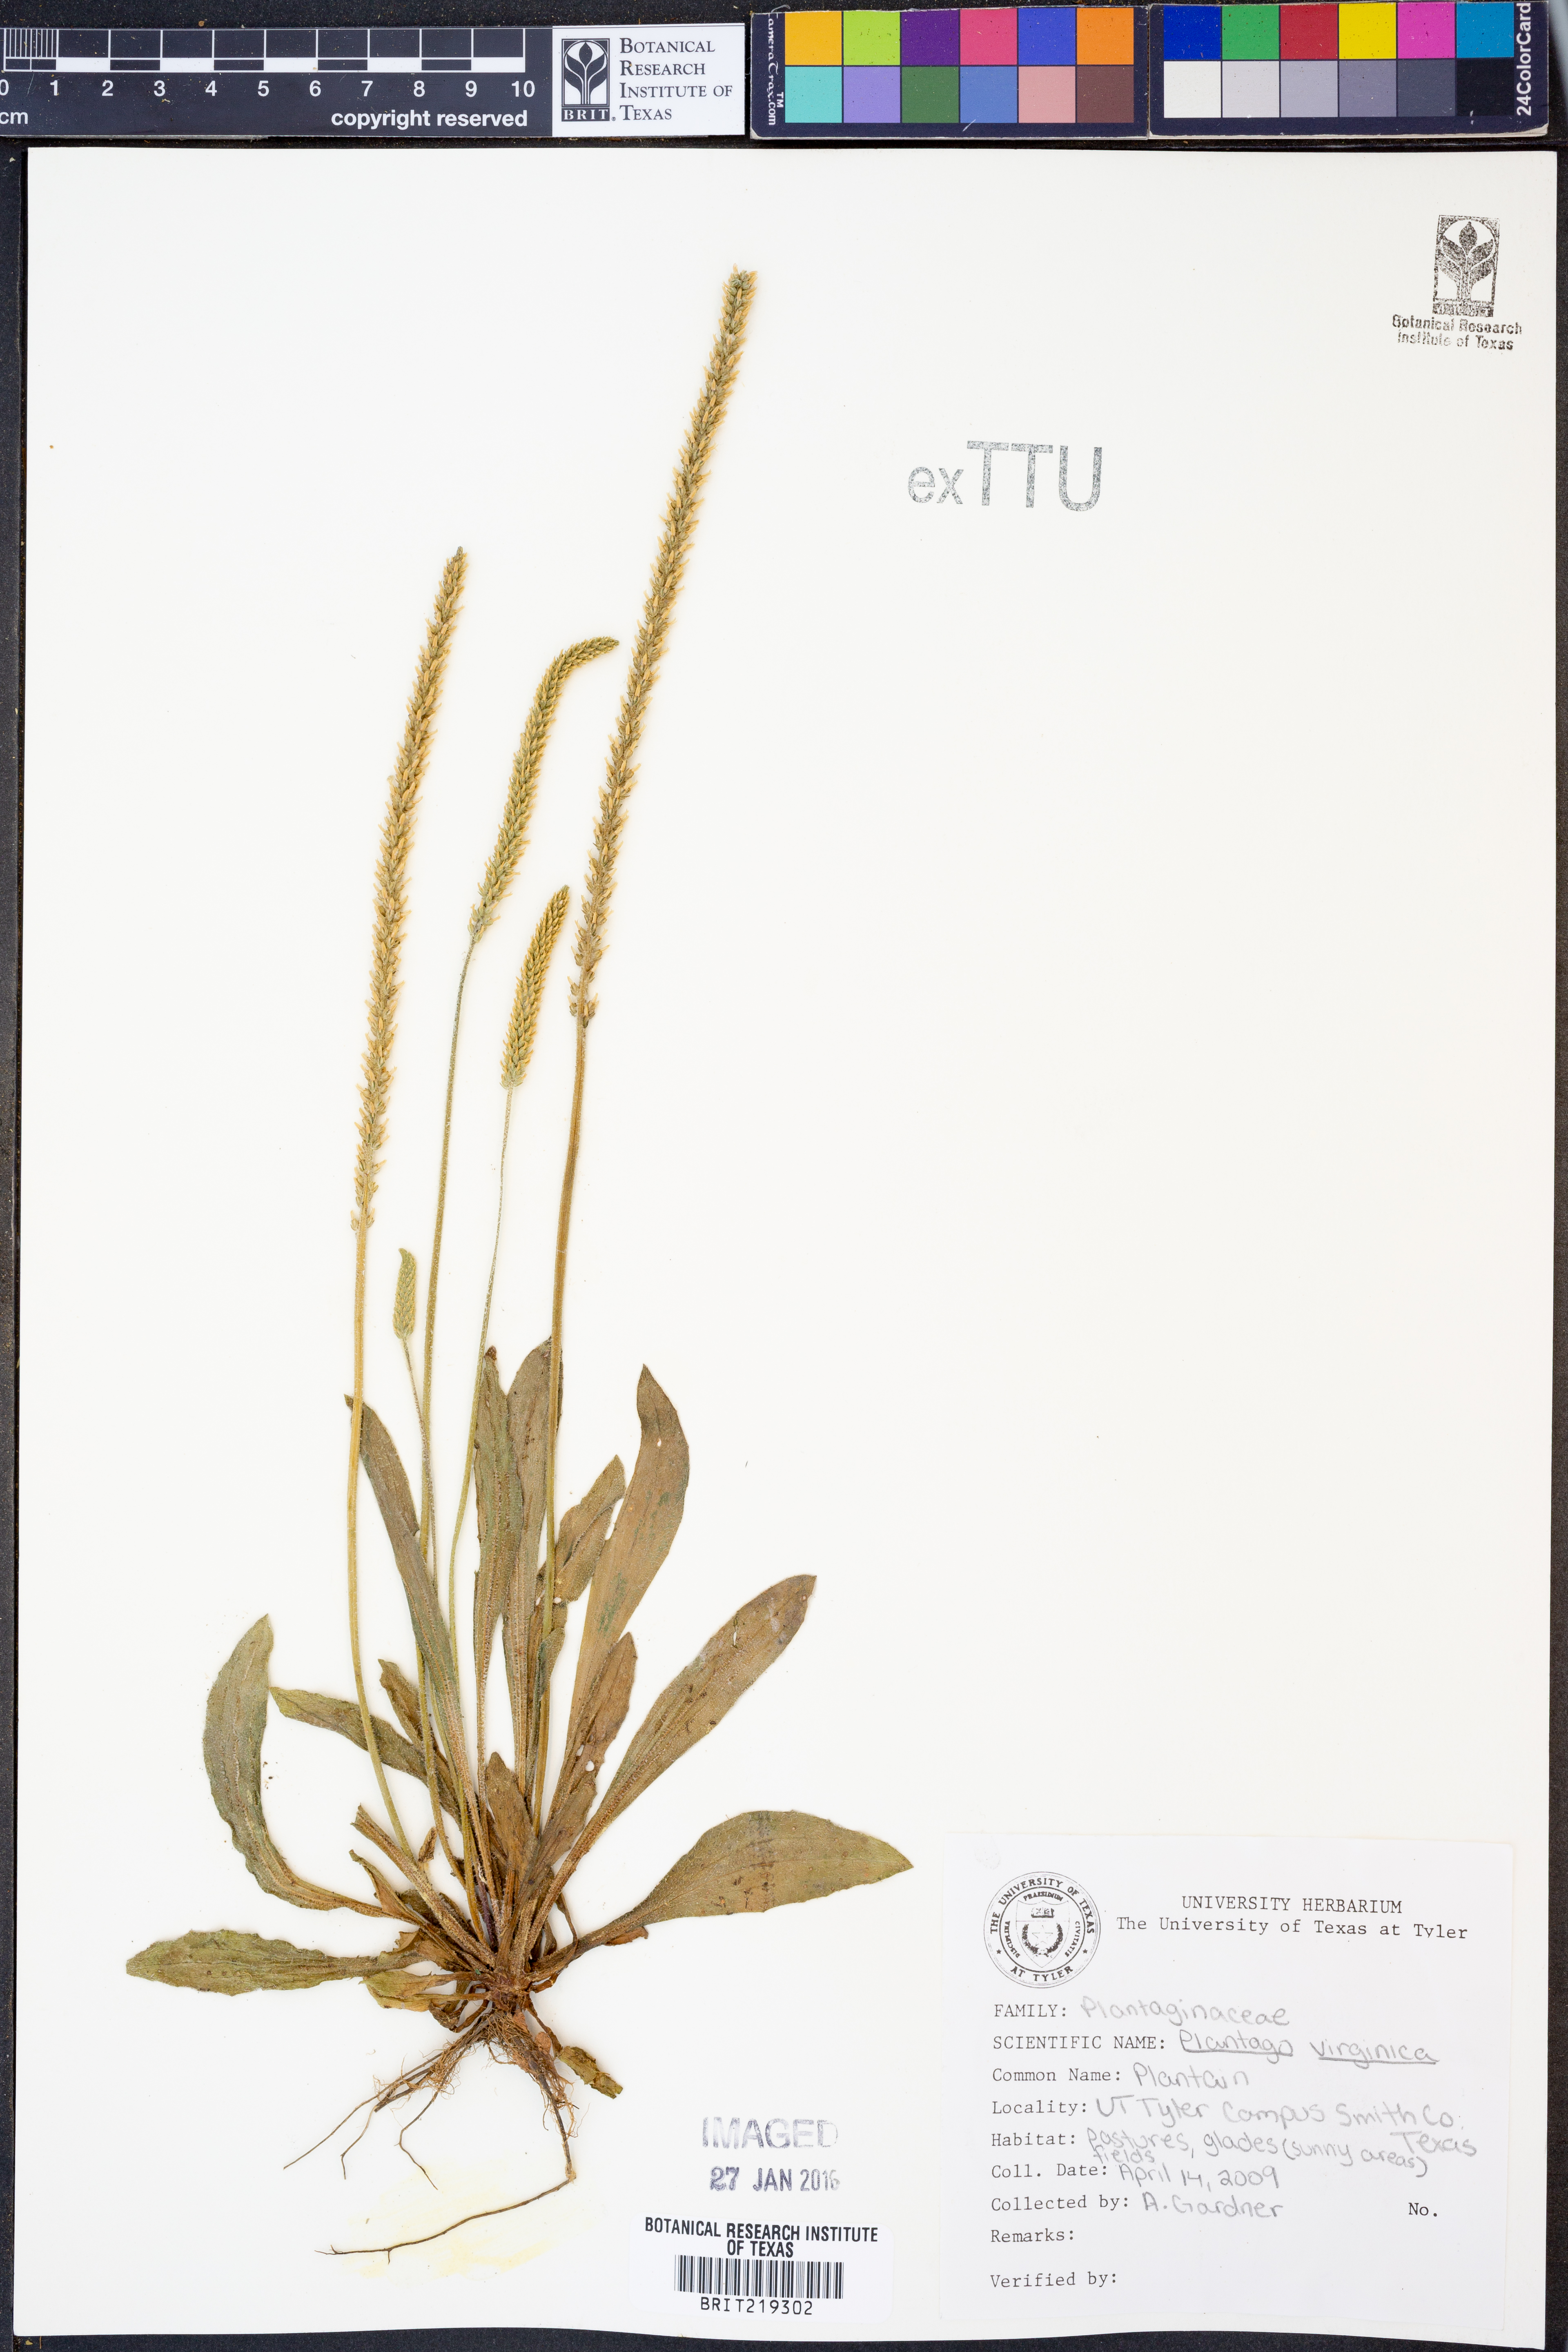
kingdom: Plantae
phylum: Tracheophyta
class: Magnoliopsida
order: Lamiales
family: Plantaginaceae
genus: Plantago
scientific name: Plantago virginica
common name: Hoary plantain
